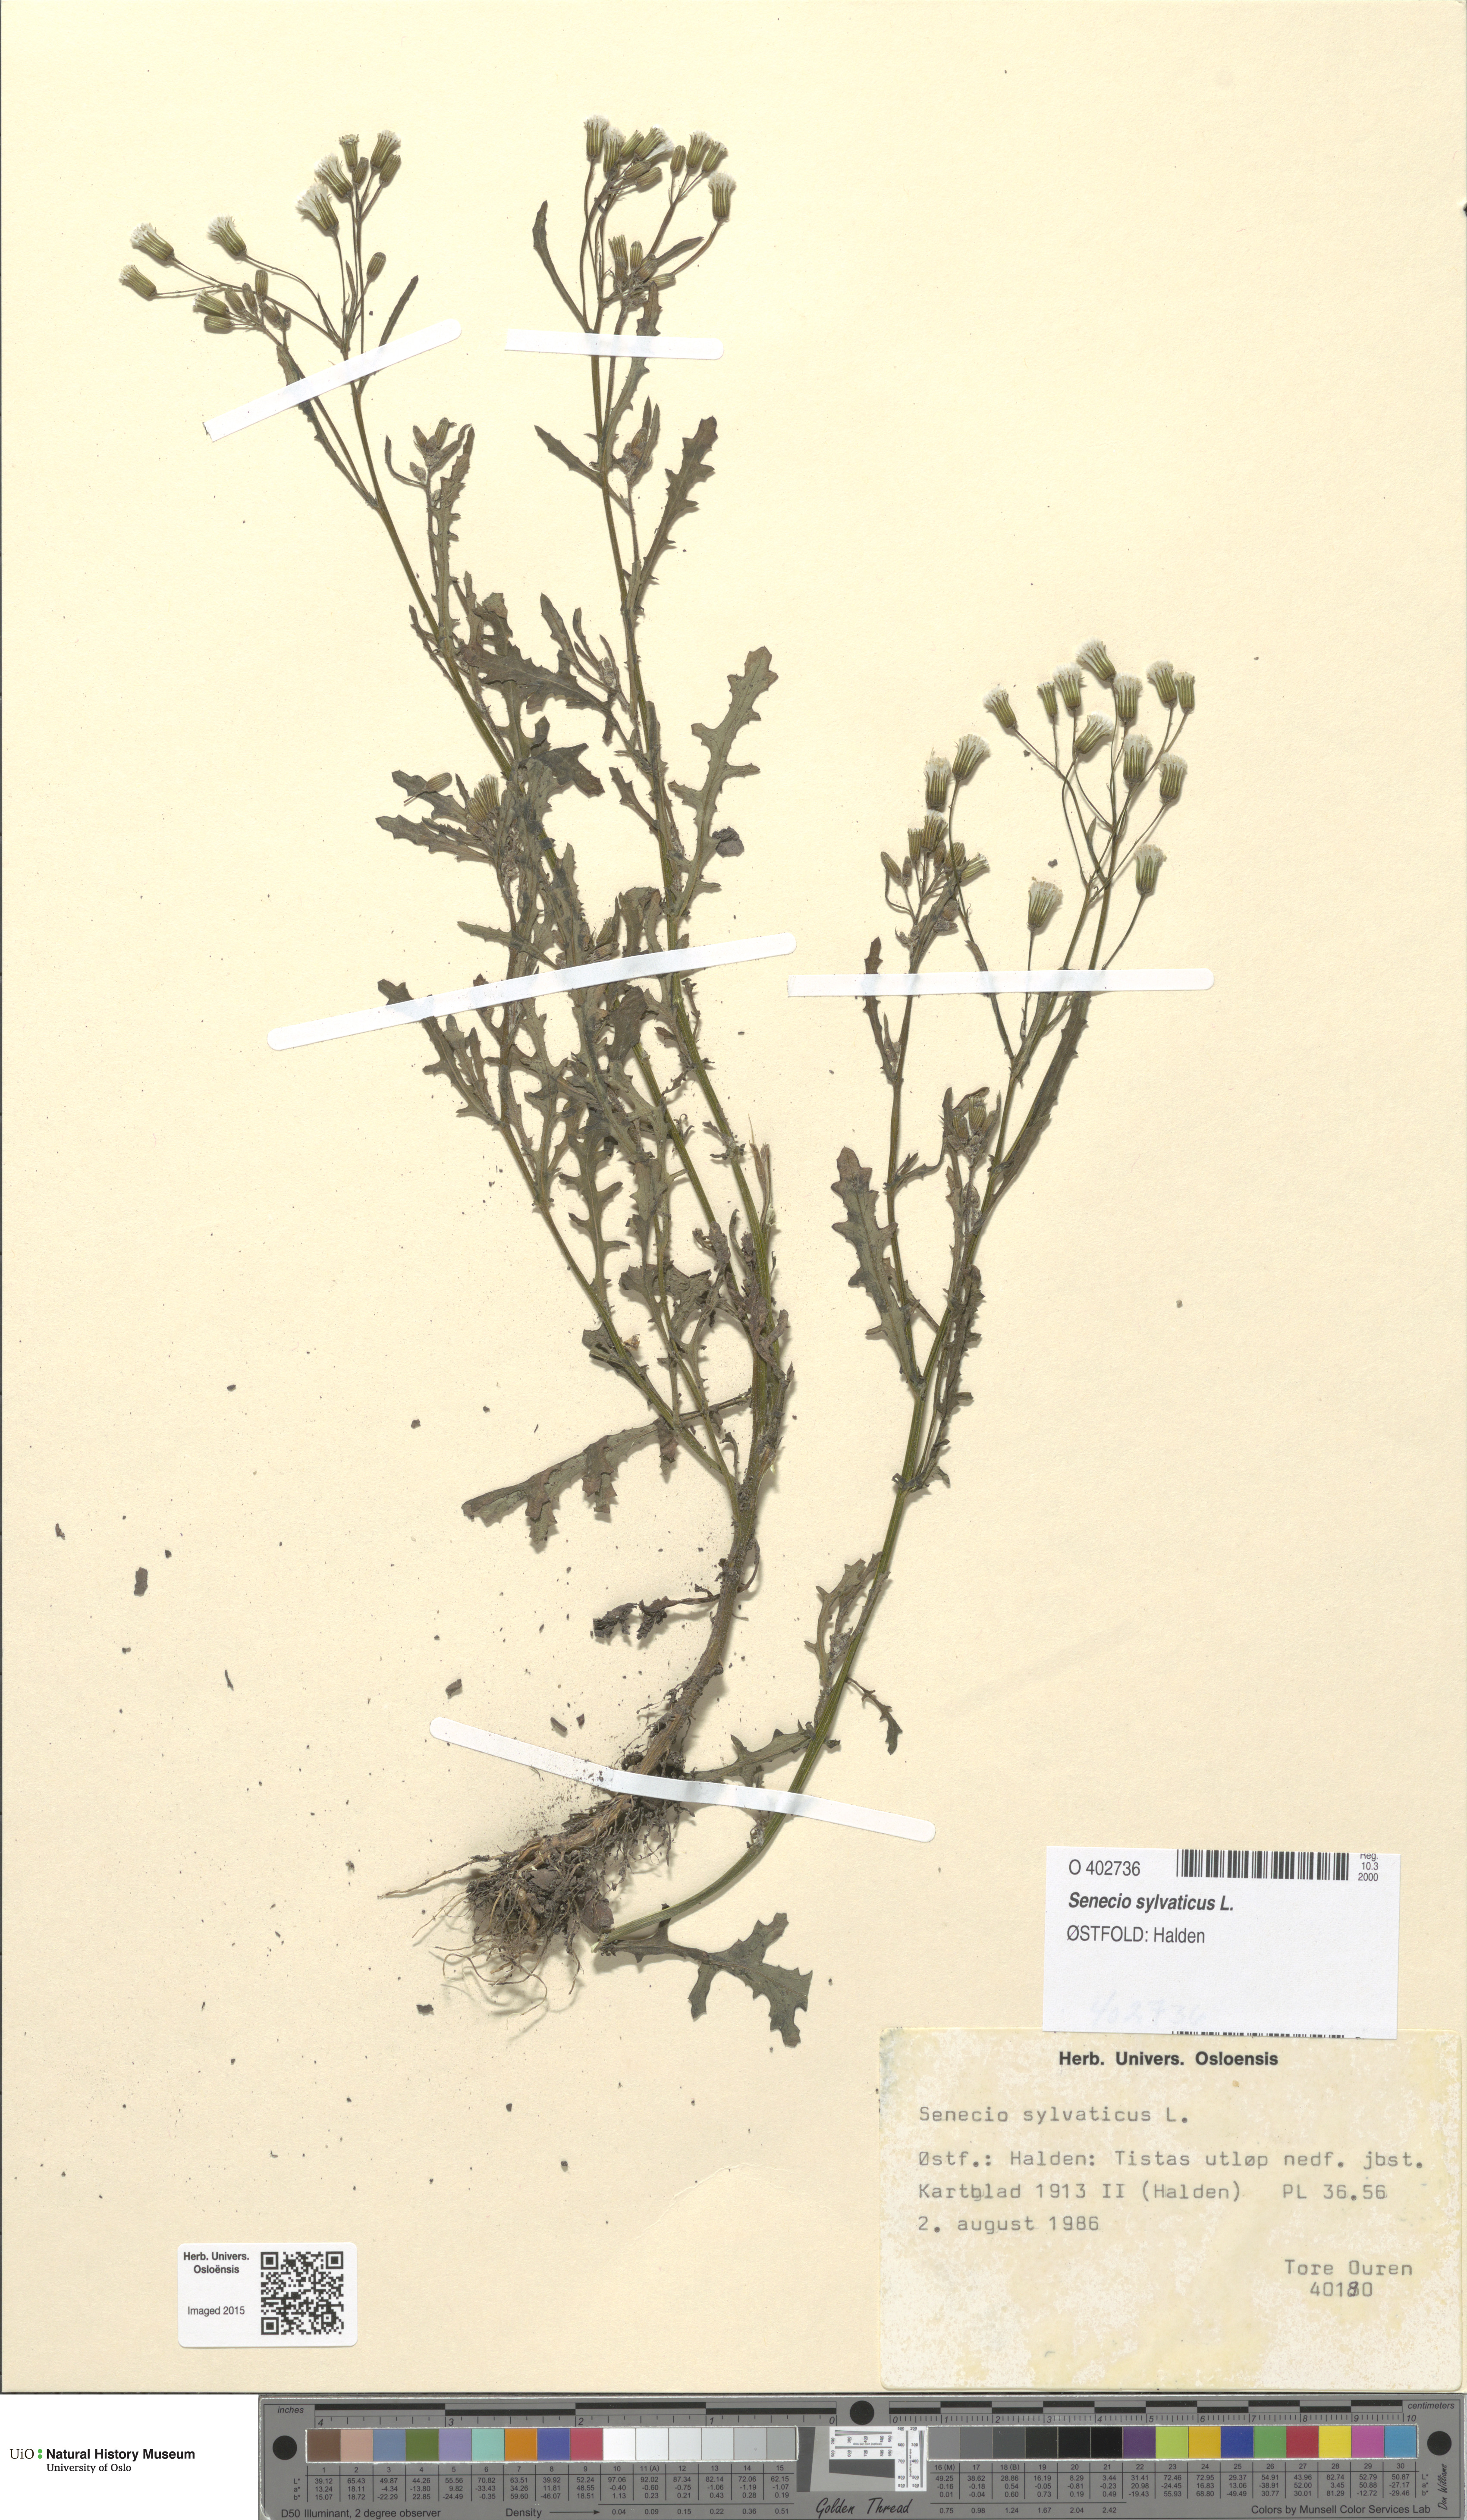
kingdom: Plantae
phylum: Tracheophyta
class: Magnoliopsida
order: Asterales
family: Asteraceae
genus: Senecio
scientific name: Senecio sylvaticus
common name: Woodland ragwort
